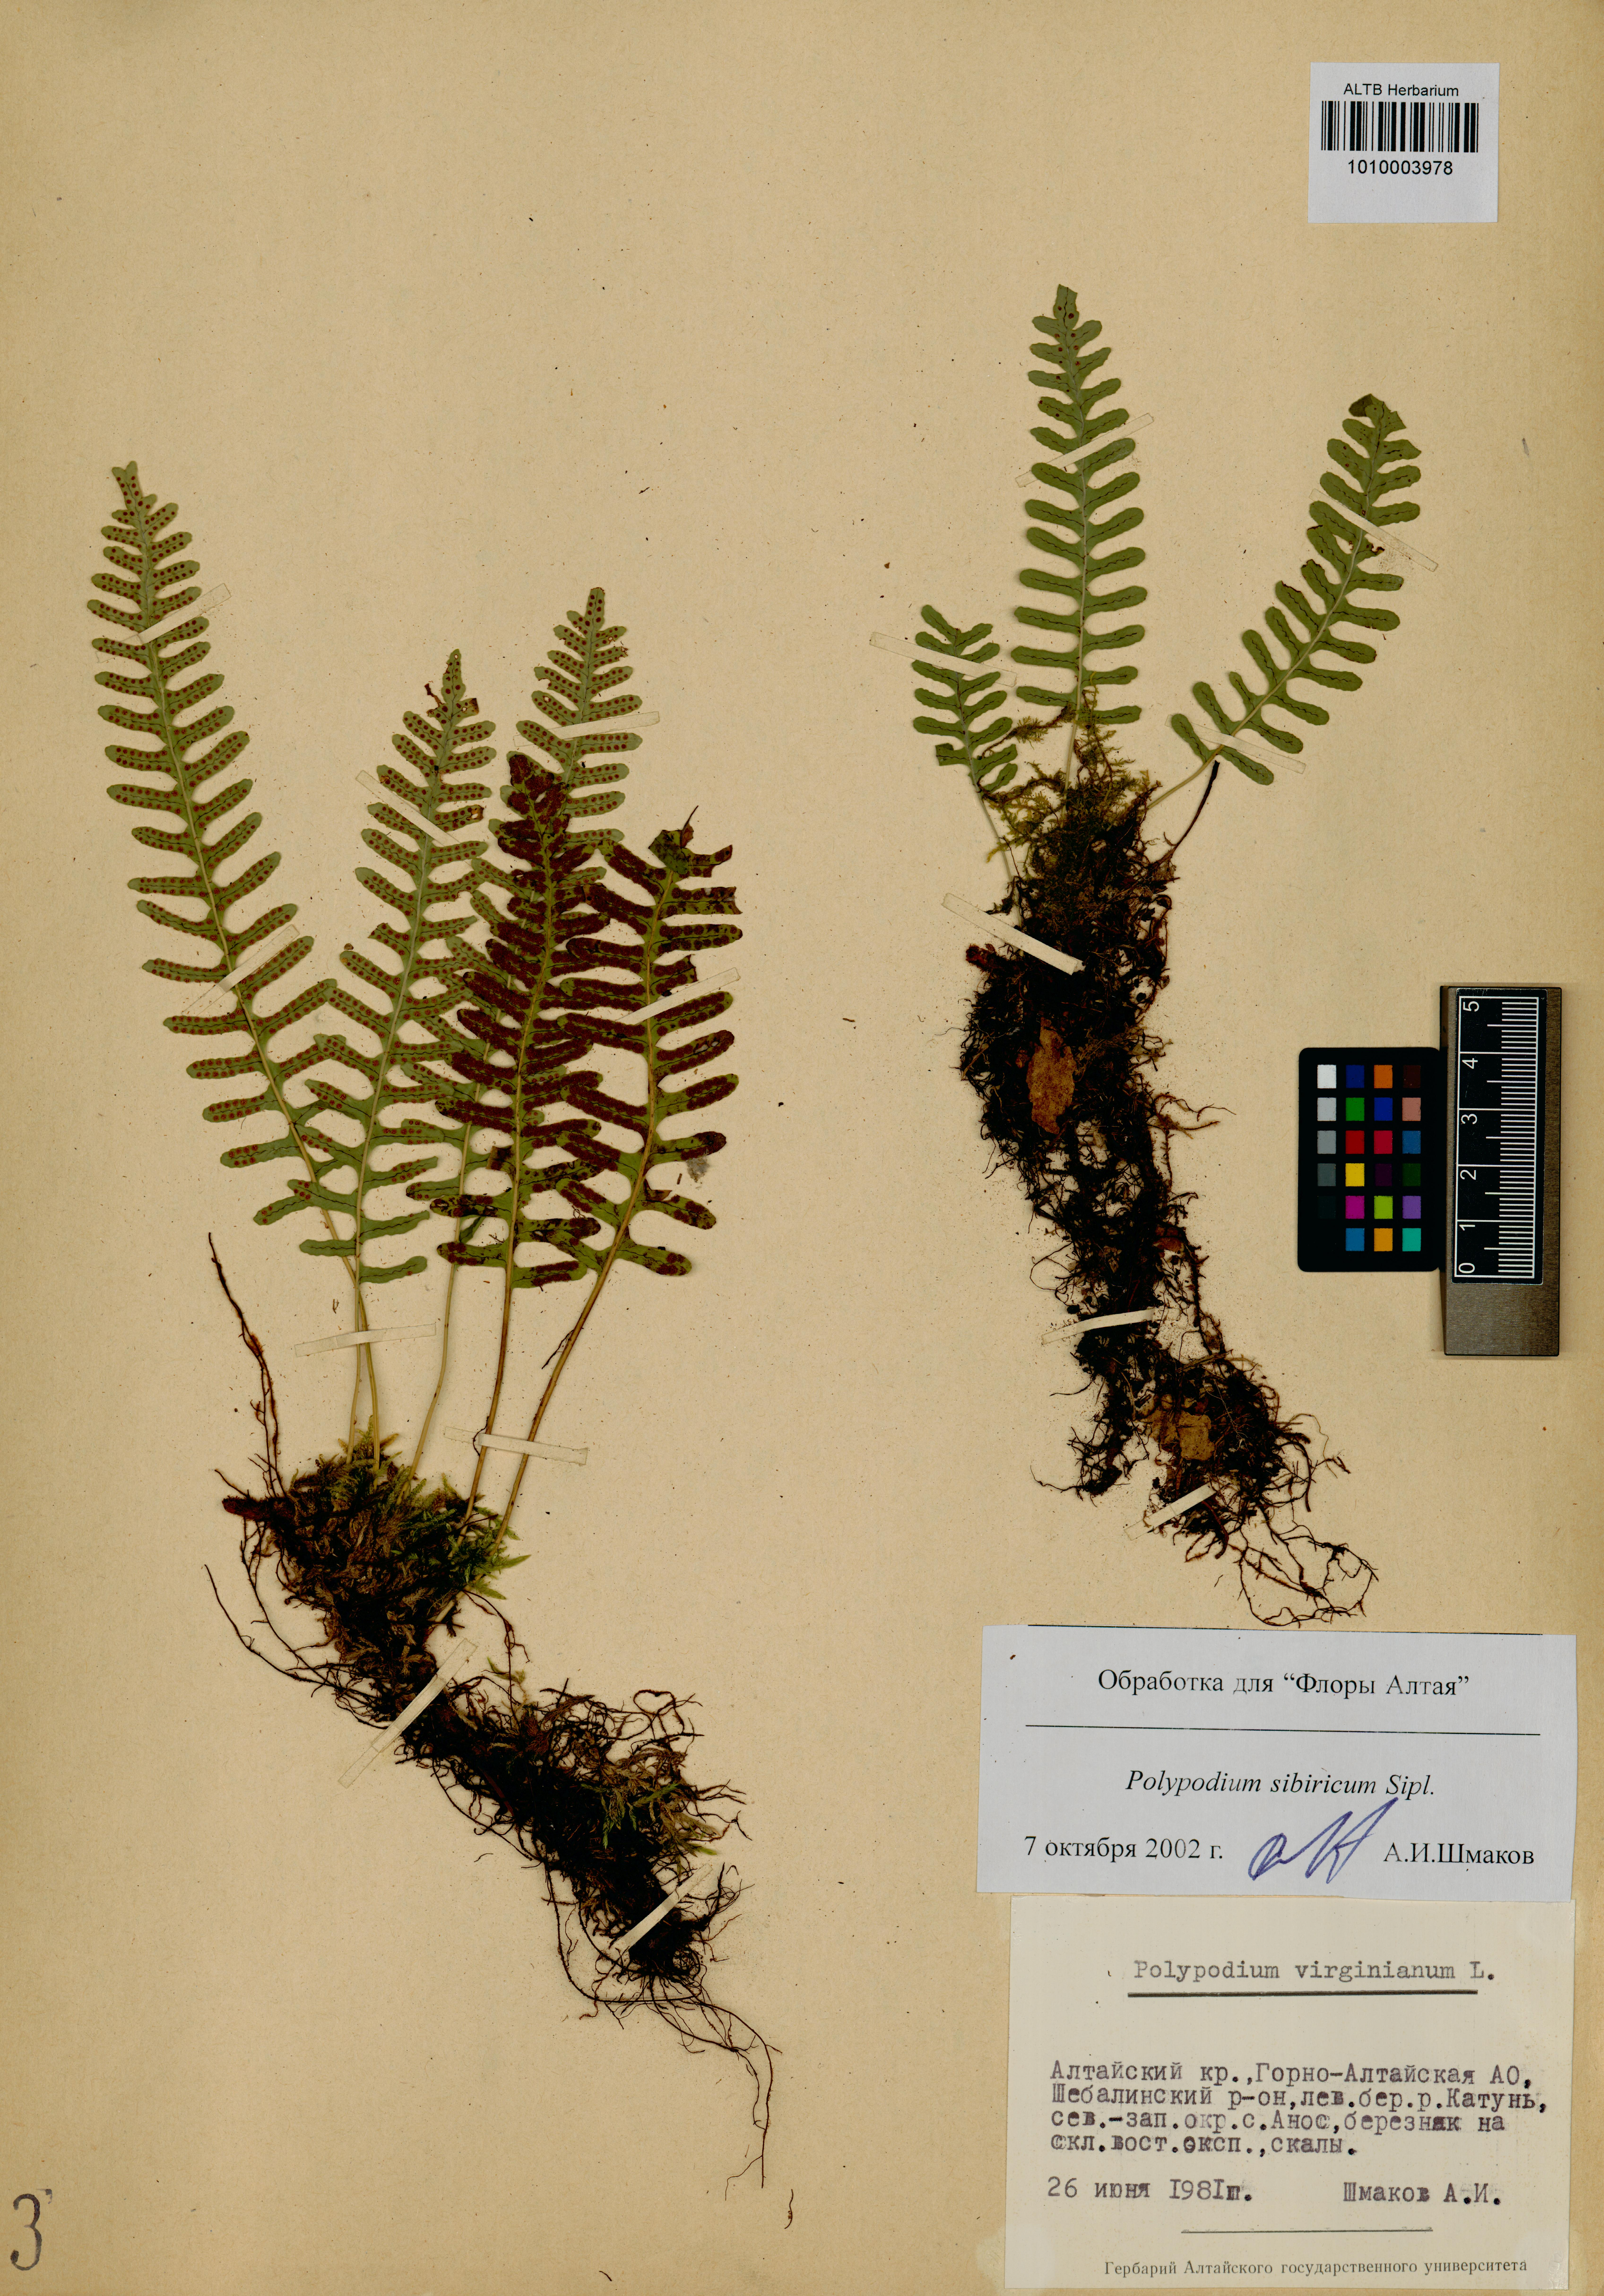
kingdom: Plantae
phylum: Tracheophyta
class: Polypodiopsida
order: Polypodiales
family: Polypodiaceae
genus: Polypodium
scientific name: Polypodium sibiricum
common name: Siberian polypody
